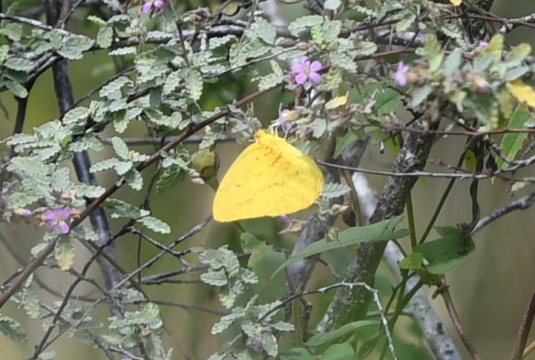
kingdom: Animalia
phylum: Arthropoda
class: Insecta
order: Lepidoptera
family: Pieridae
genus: Phoebis
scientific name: Phoebis agarithe
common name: Large Orange Sulphur
